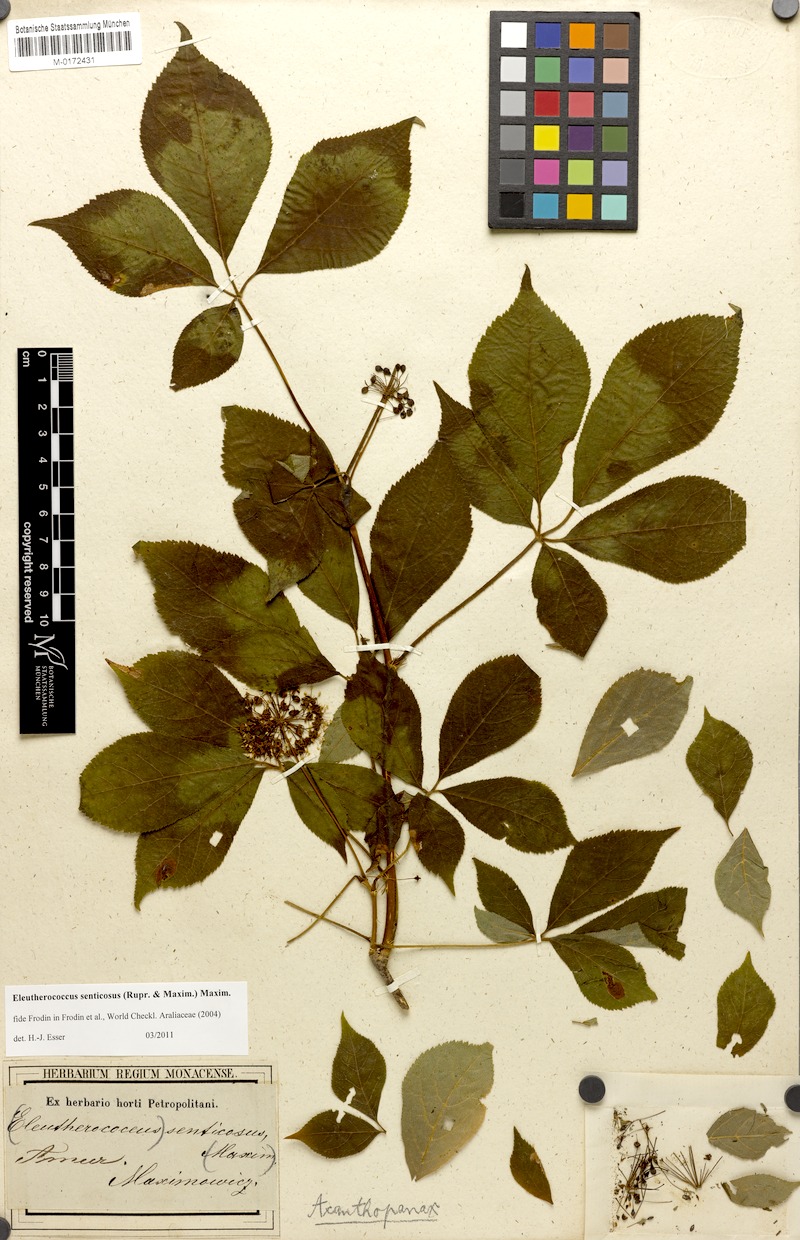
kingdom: Plantae
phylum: Tracheophyta
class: Magnoliopsida
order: Apiales
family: Araliaceae
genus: Eleutherococcus
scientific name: Eleutherococcus senticosus
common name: Siberian-ginseng
